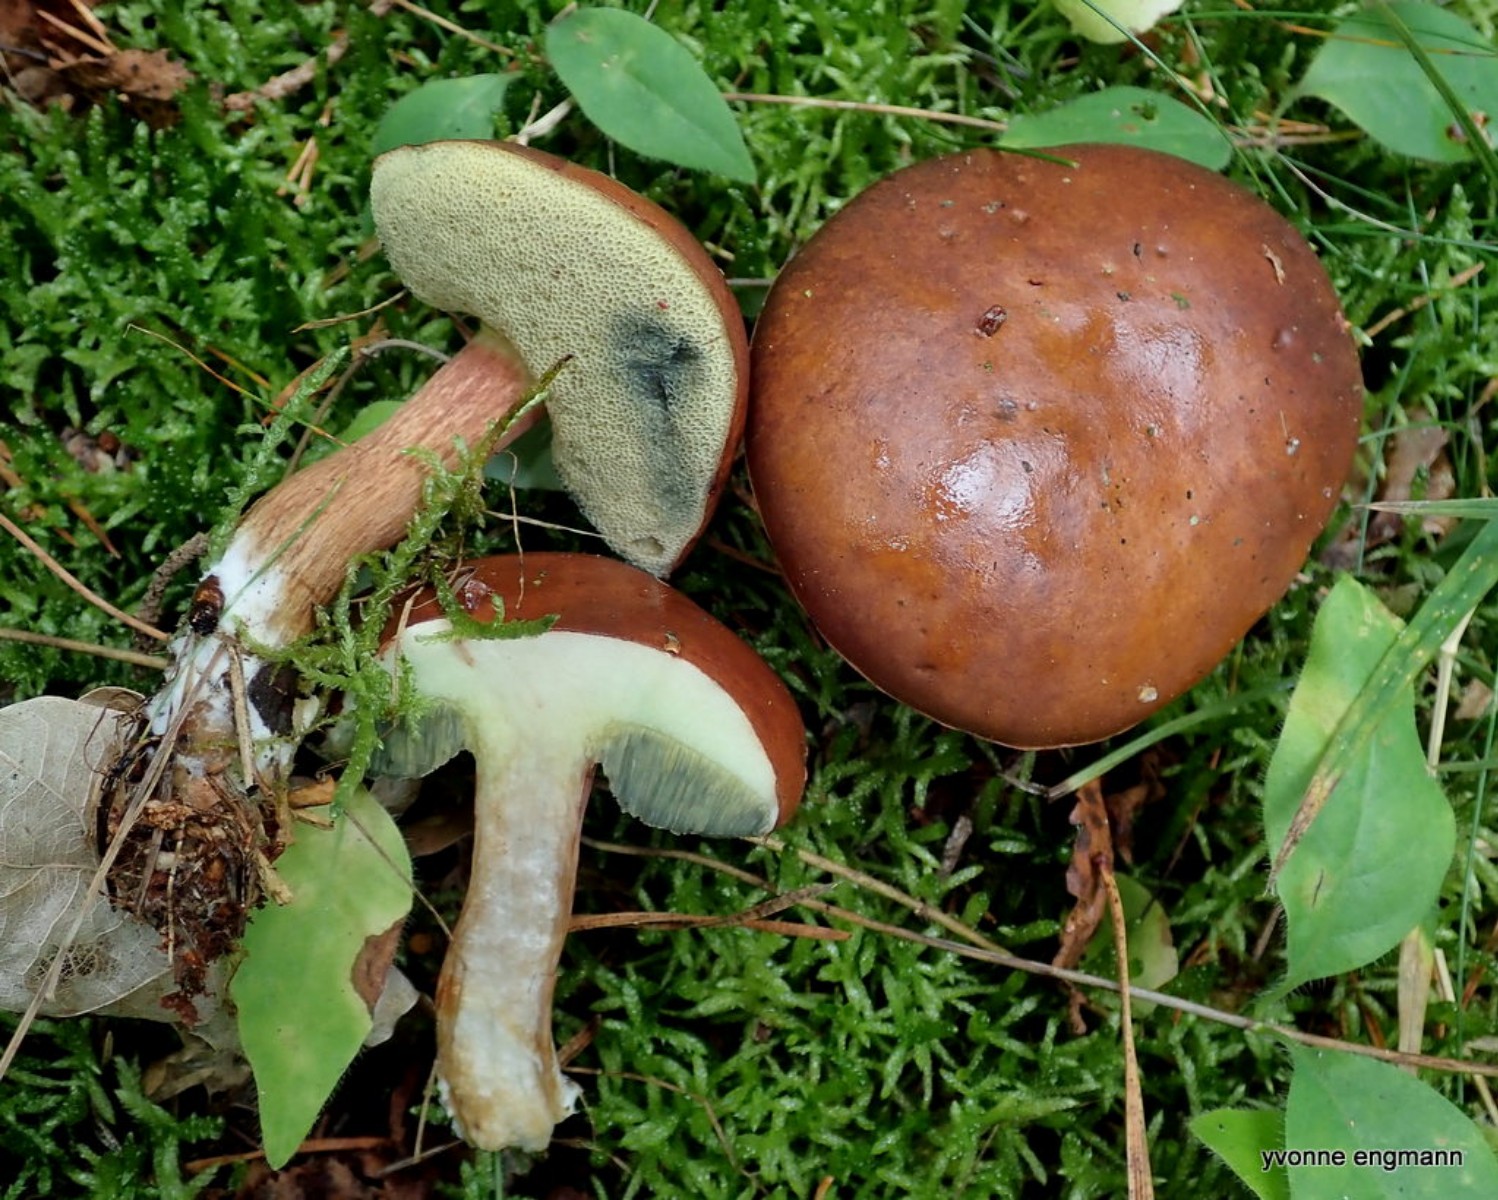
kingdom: Fungi
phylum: Basidiomycota
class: Agaricomycetes
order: Boletales
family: Boletaceae
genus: Imleria
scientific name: Imleria badia
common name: brunstokket rørhat
